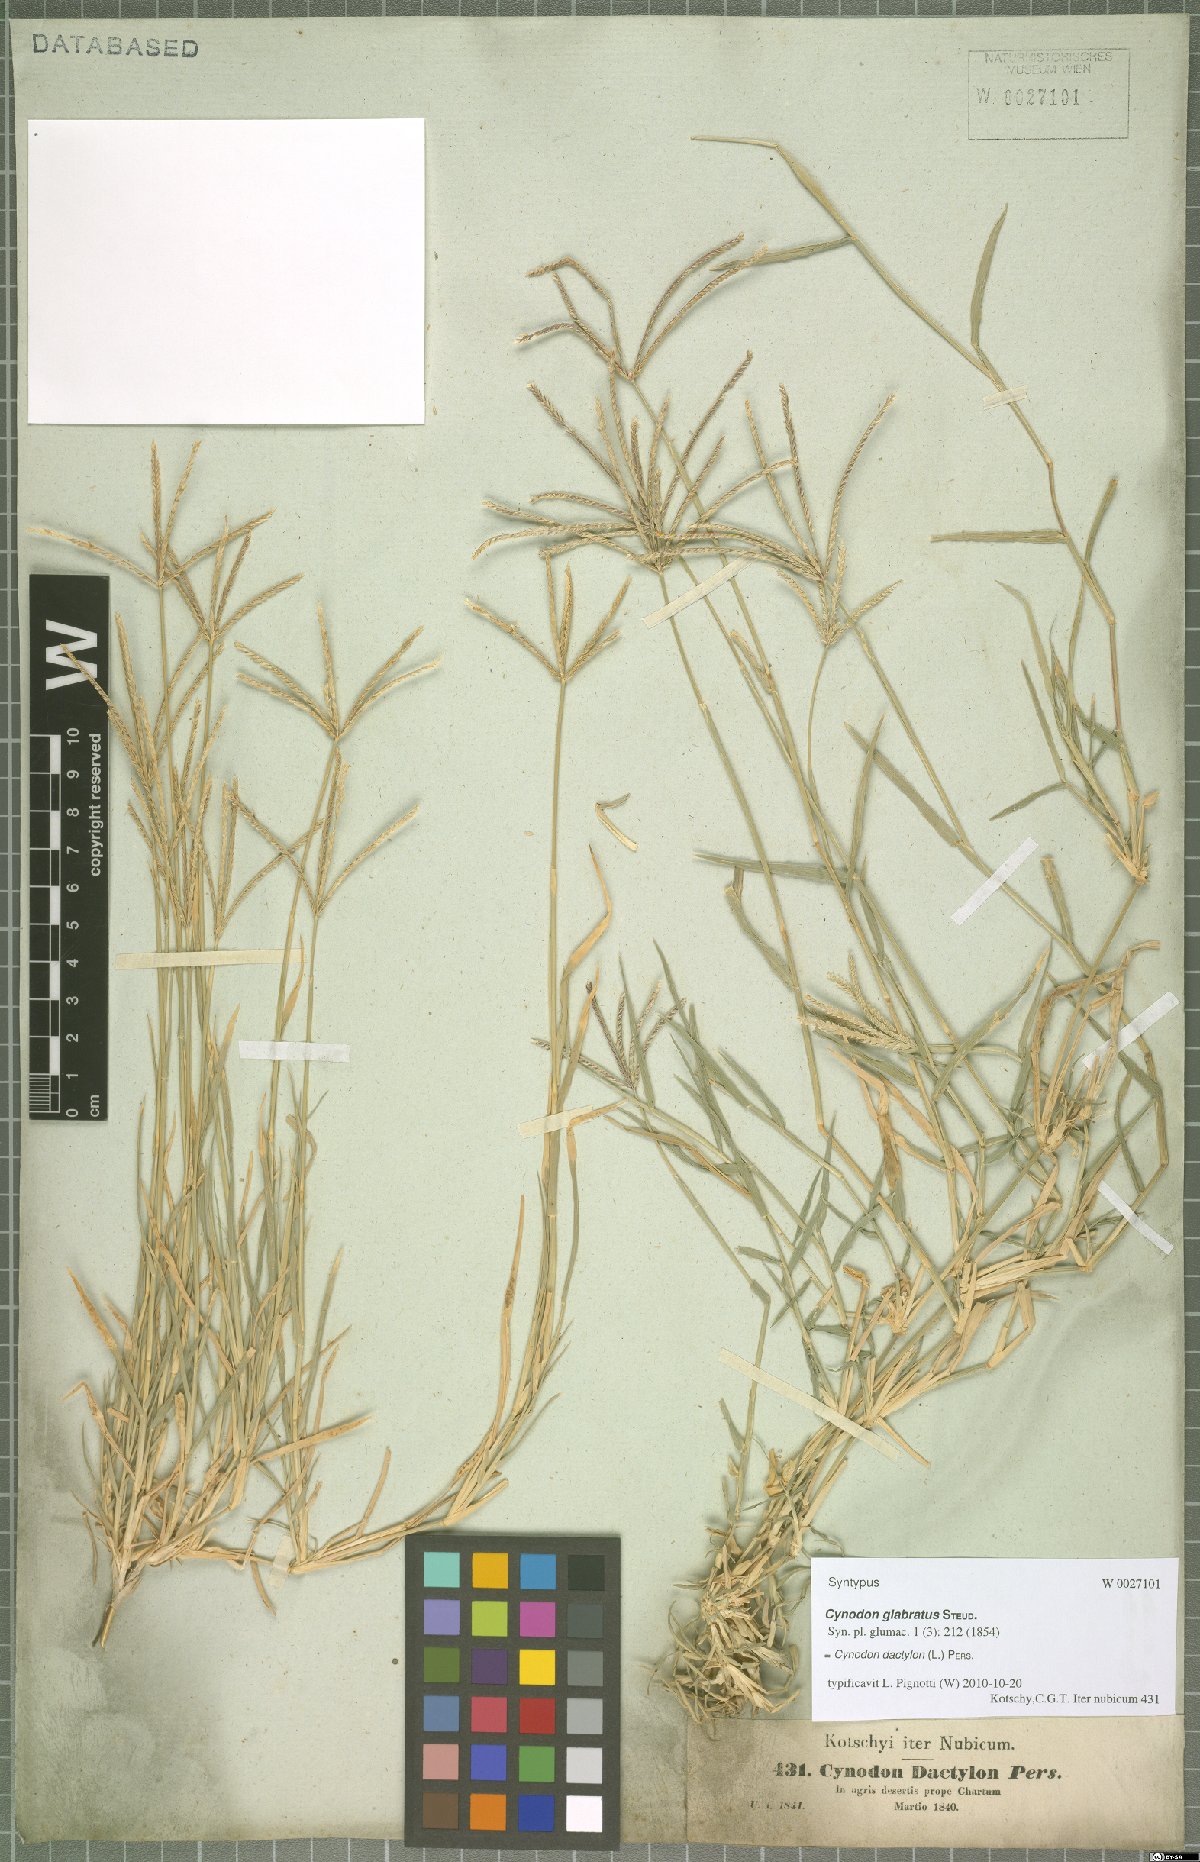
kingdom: Plantae
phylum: Tracheophyta
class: Liliopsida
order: Poales
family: Poaceae
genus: Cynodon
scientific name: Cynodon dactylon
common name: Bermuda grass
